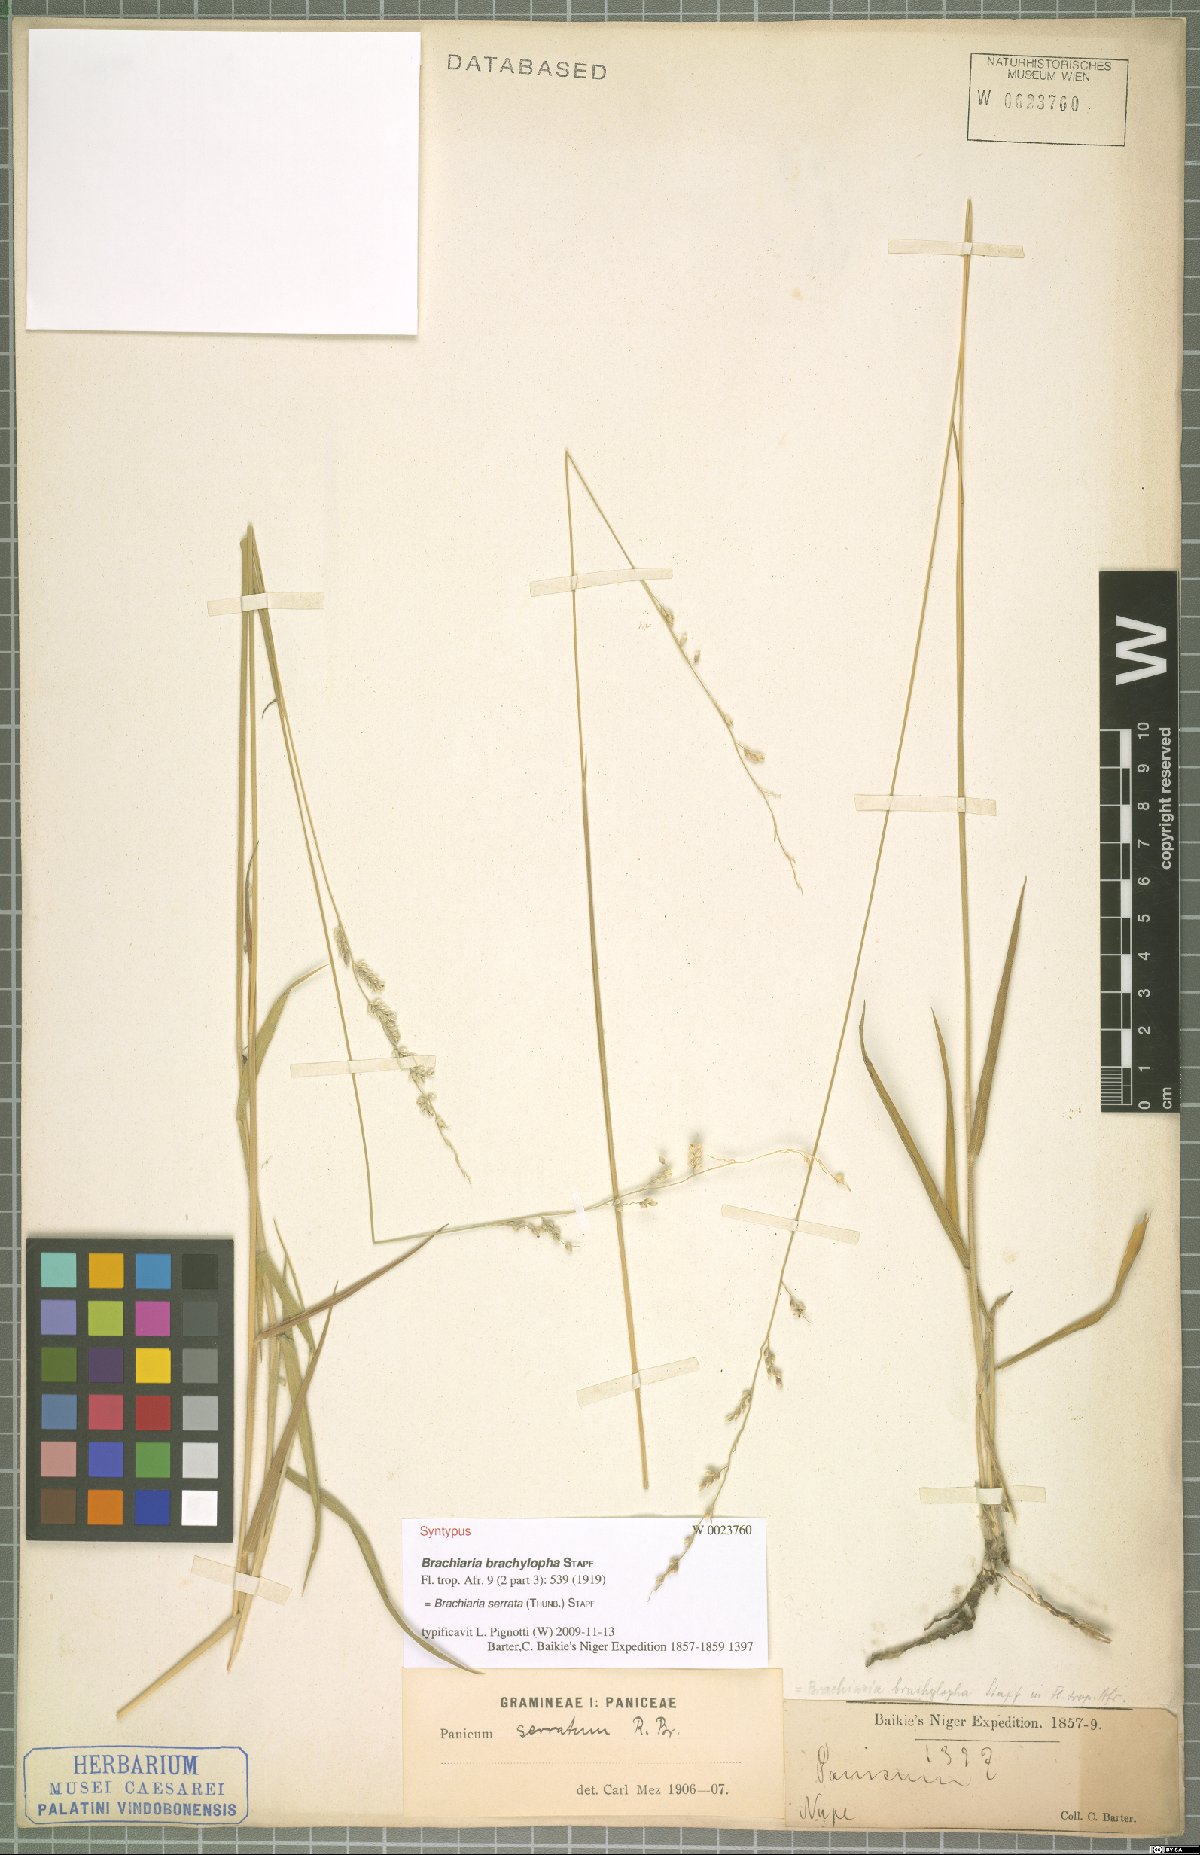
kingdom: Plantae
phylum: Tracheophyta
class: Liliopsida
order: Poales
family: Poaceae
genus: Urochloa
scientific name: Urochloa serrata
